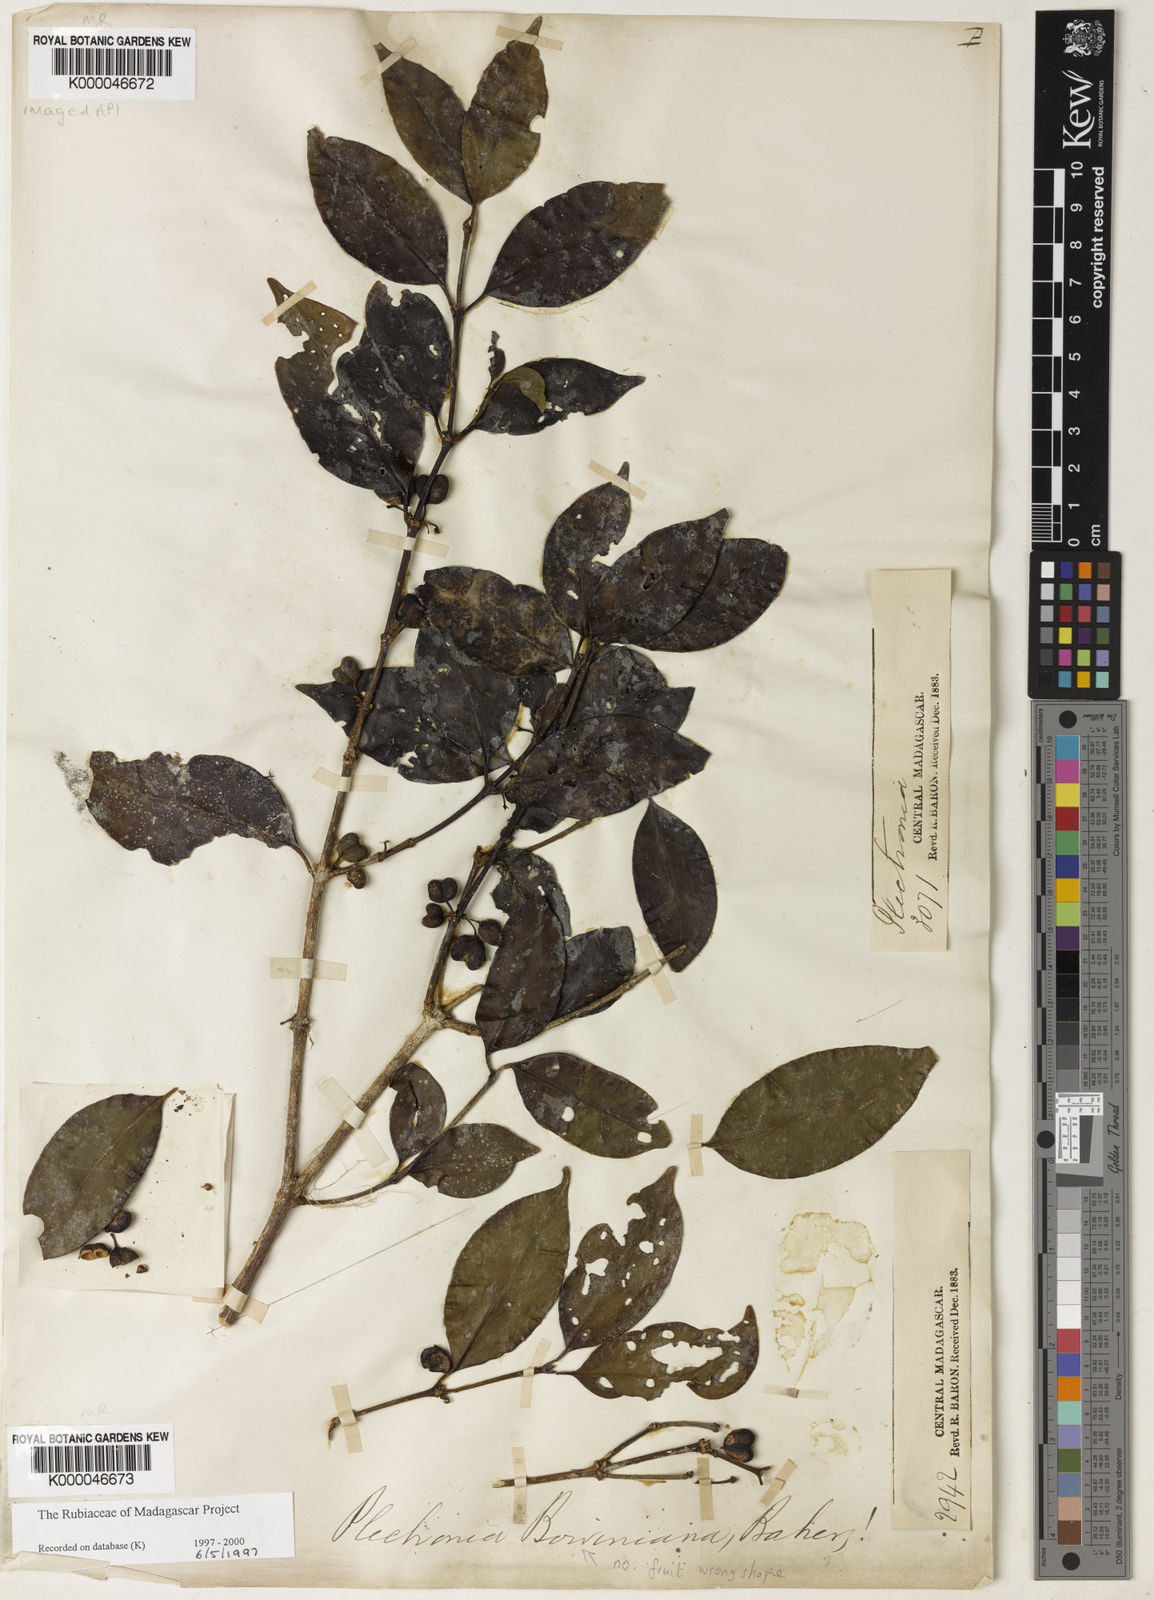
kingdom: Plantae
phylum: Tracheophyta
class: Magnoliopsida
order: Gentianales
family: Rubiaceae
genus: Peponidium
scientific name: Peponidium boivinianum
